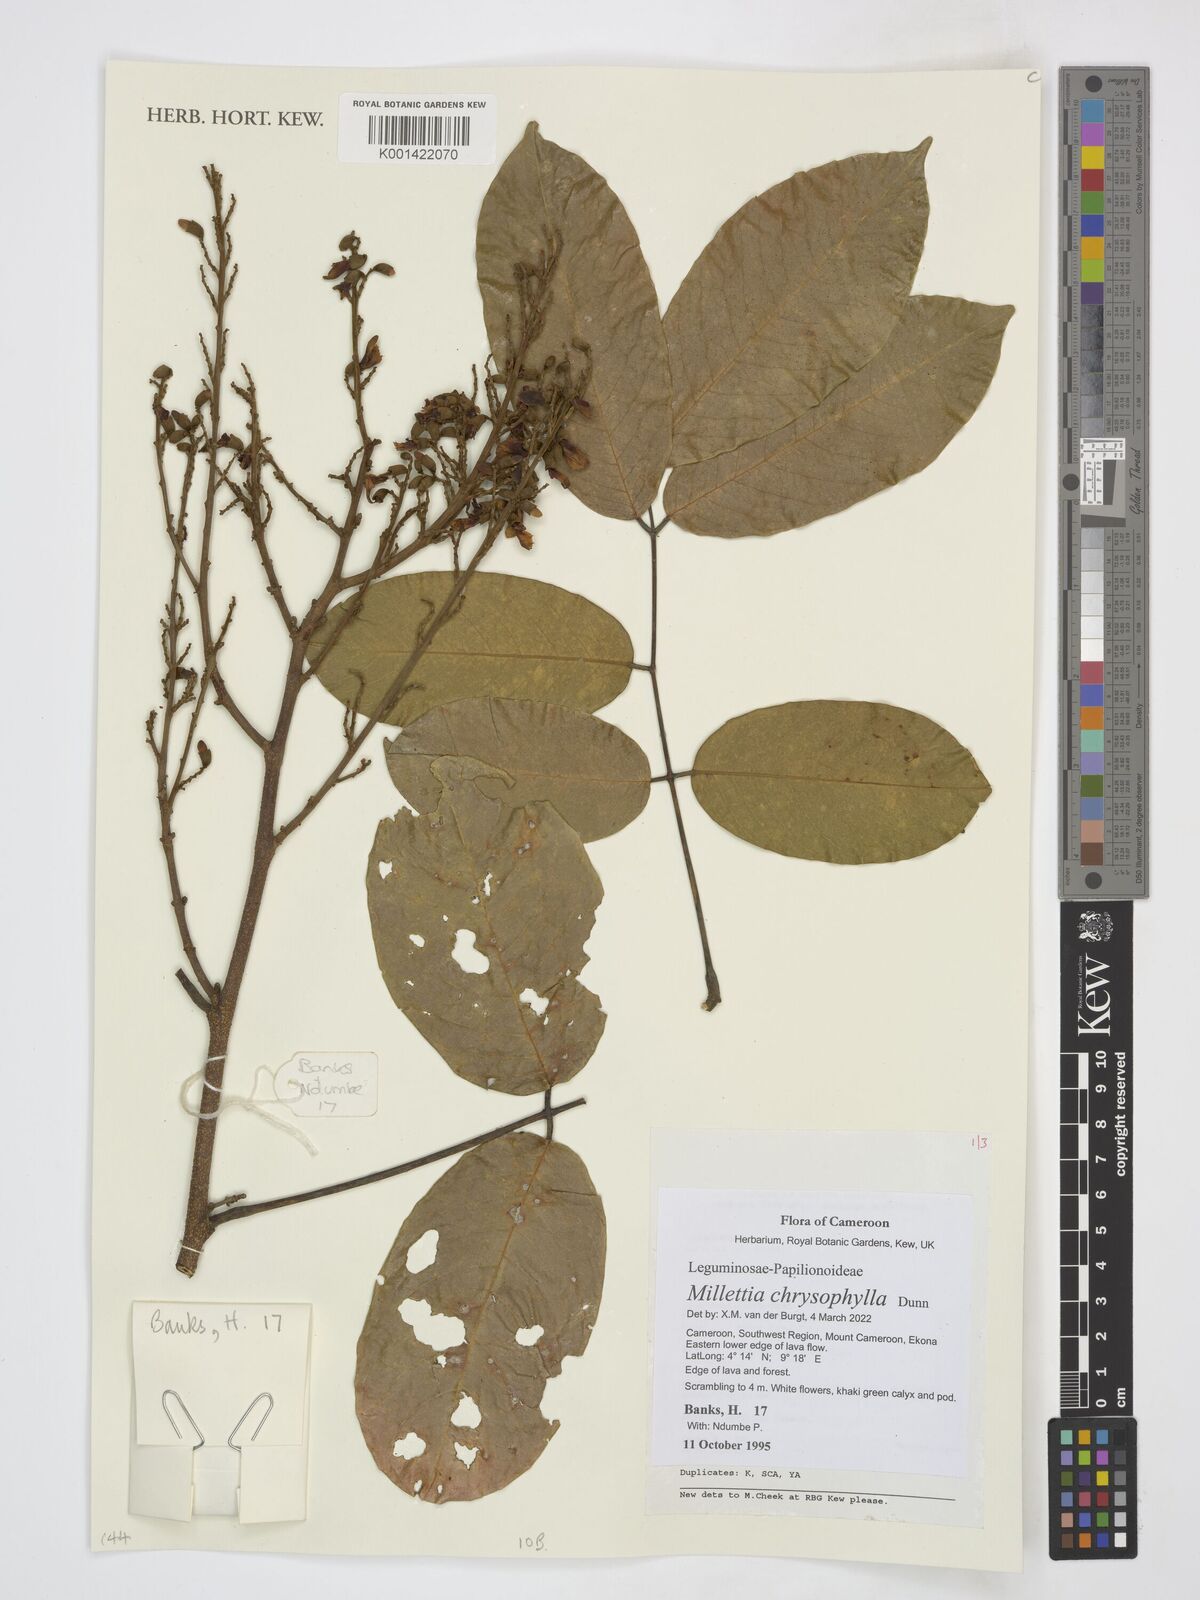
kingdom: Plantae
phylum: Tracheophyta
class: Magnoliopsida
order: Fabales
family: Fabaceae
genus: Millettia
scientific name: Millettia chrysophylla
